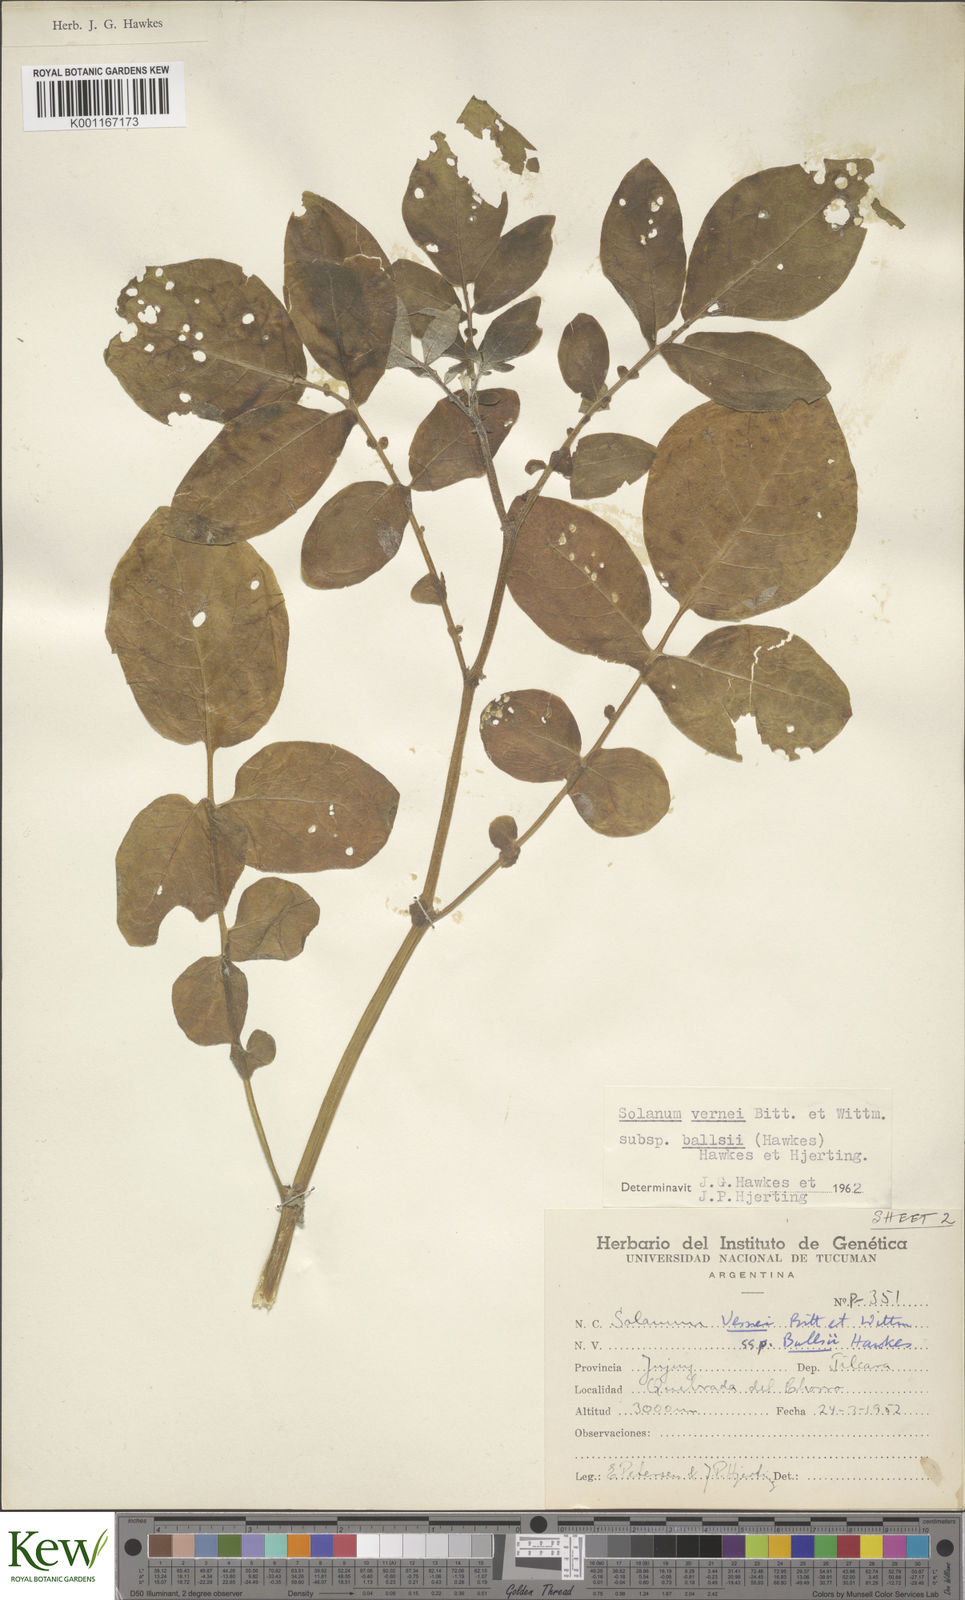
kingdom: Plantae
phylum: Tracheophyta
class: Magnoliopsida
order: Solanales
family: Solanaceae
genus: Solanum
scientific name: Solanum vernei
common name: Purple potato
